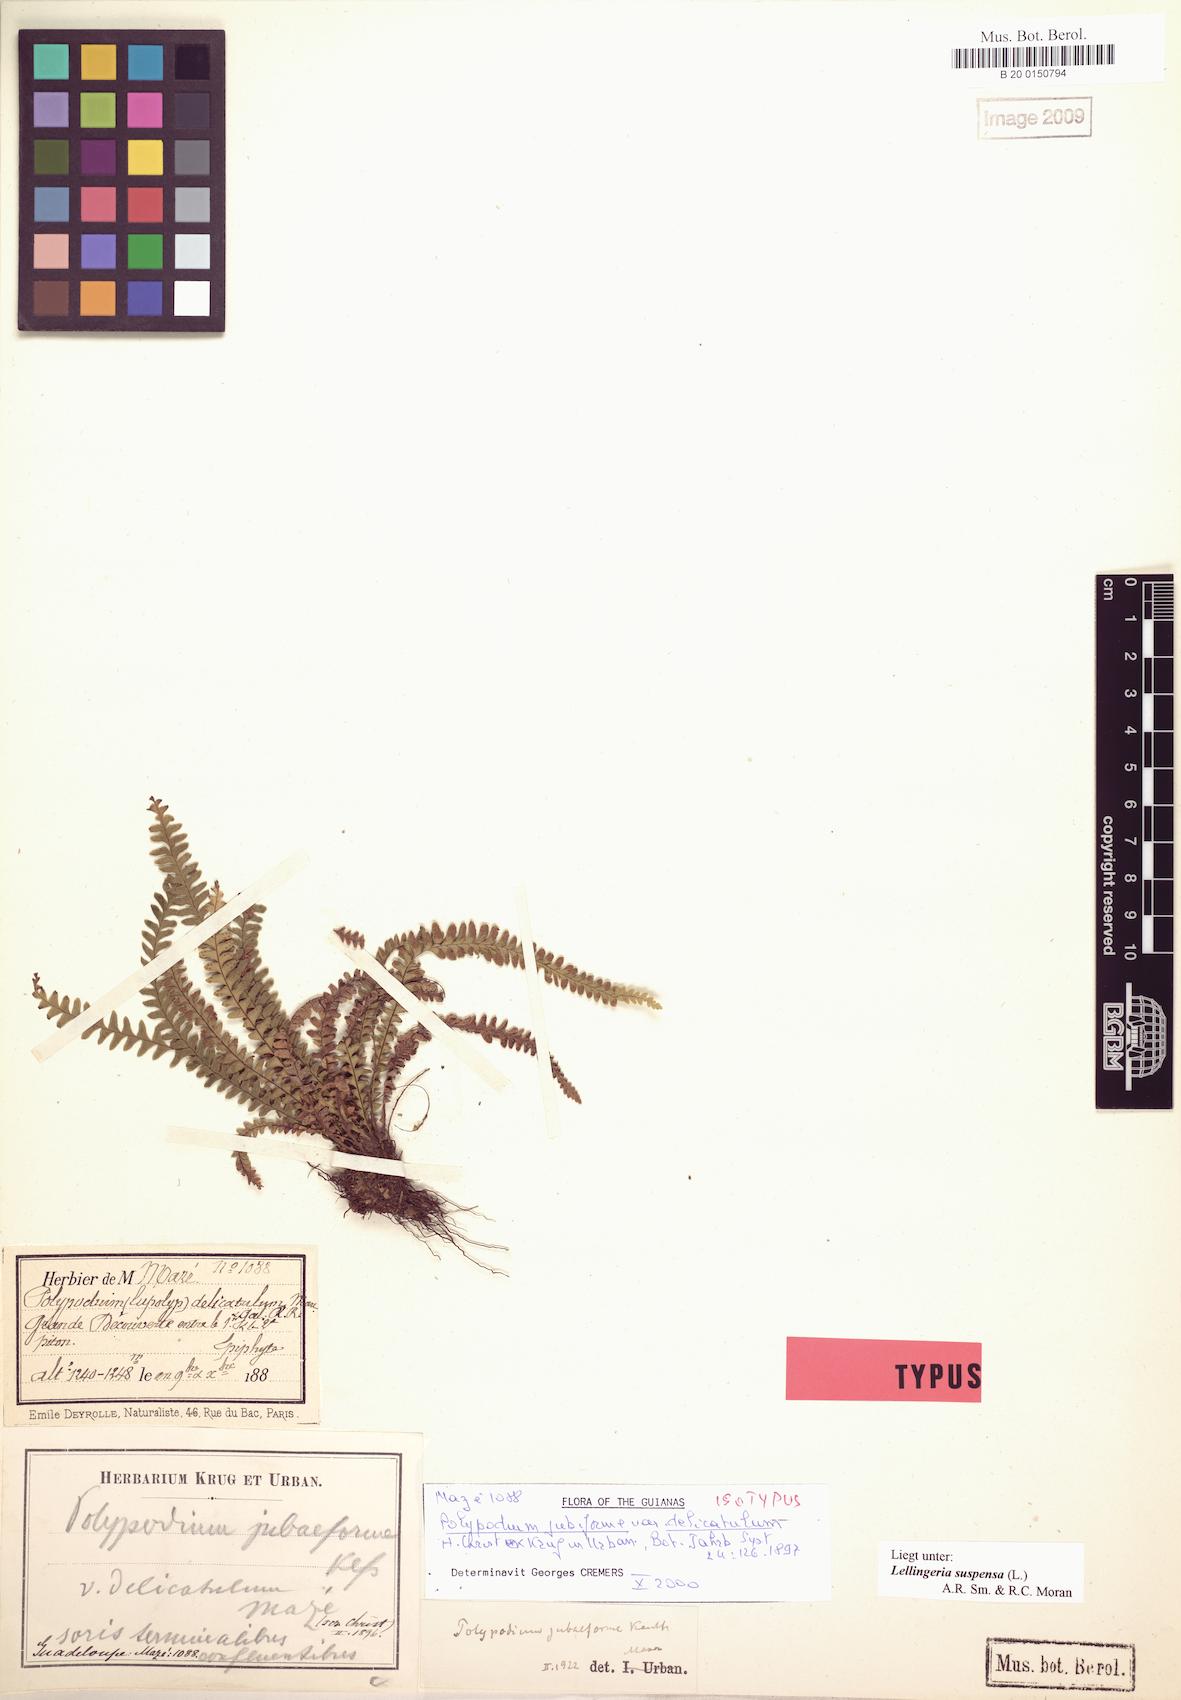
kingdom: Plantae
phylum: Tracheophyta
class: Polypodiopsida
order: Polypodiales
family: Polypodiaceae
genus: Lellingeria
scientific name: Lellingeria suspensa
